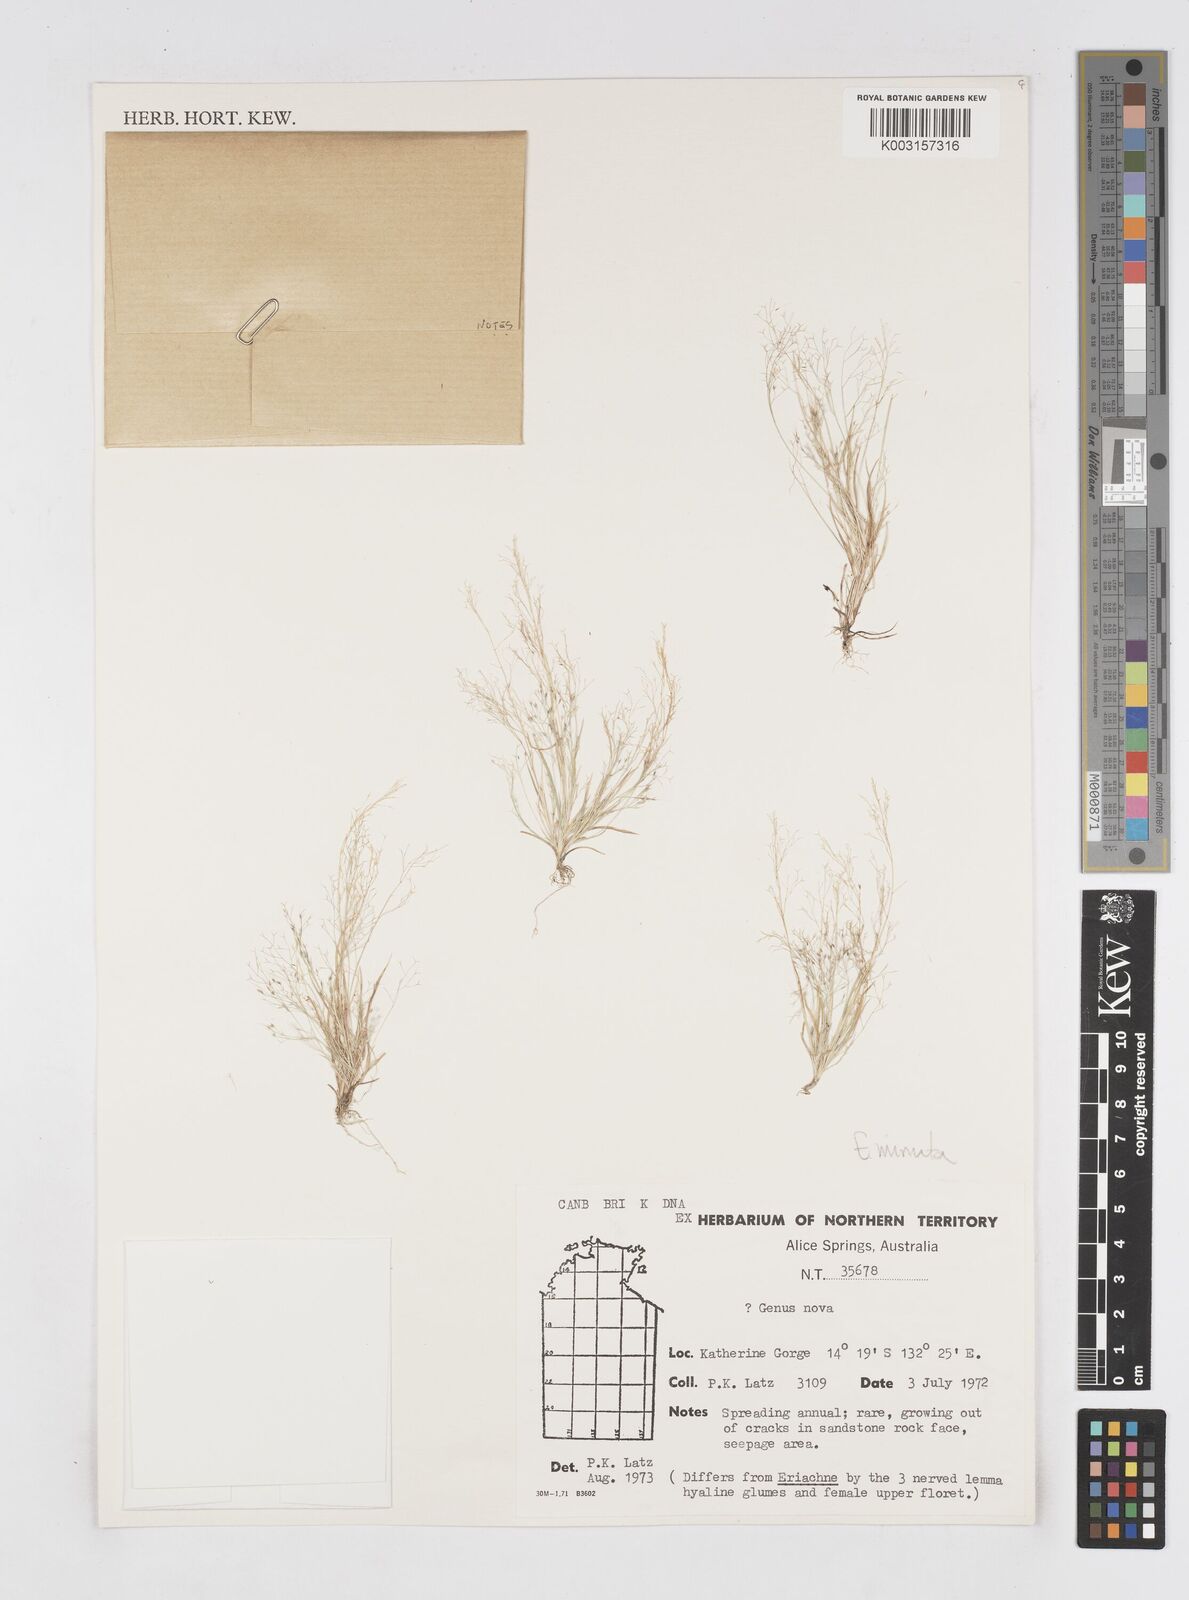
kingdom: Plantae
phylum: Tracheophyta
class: Liliopsida
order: Poales
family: Poaceae
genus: Eriachne
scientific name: Eriachne minuta
